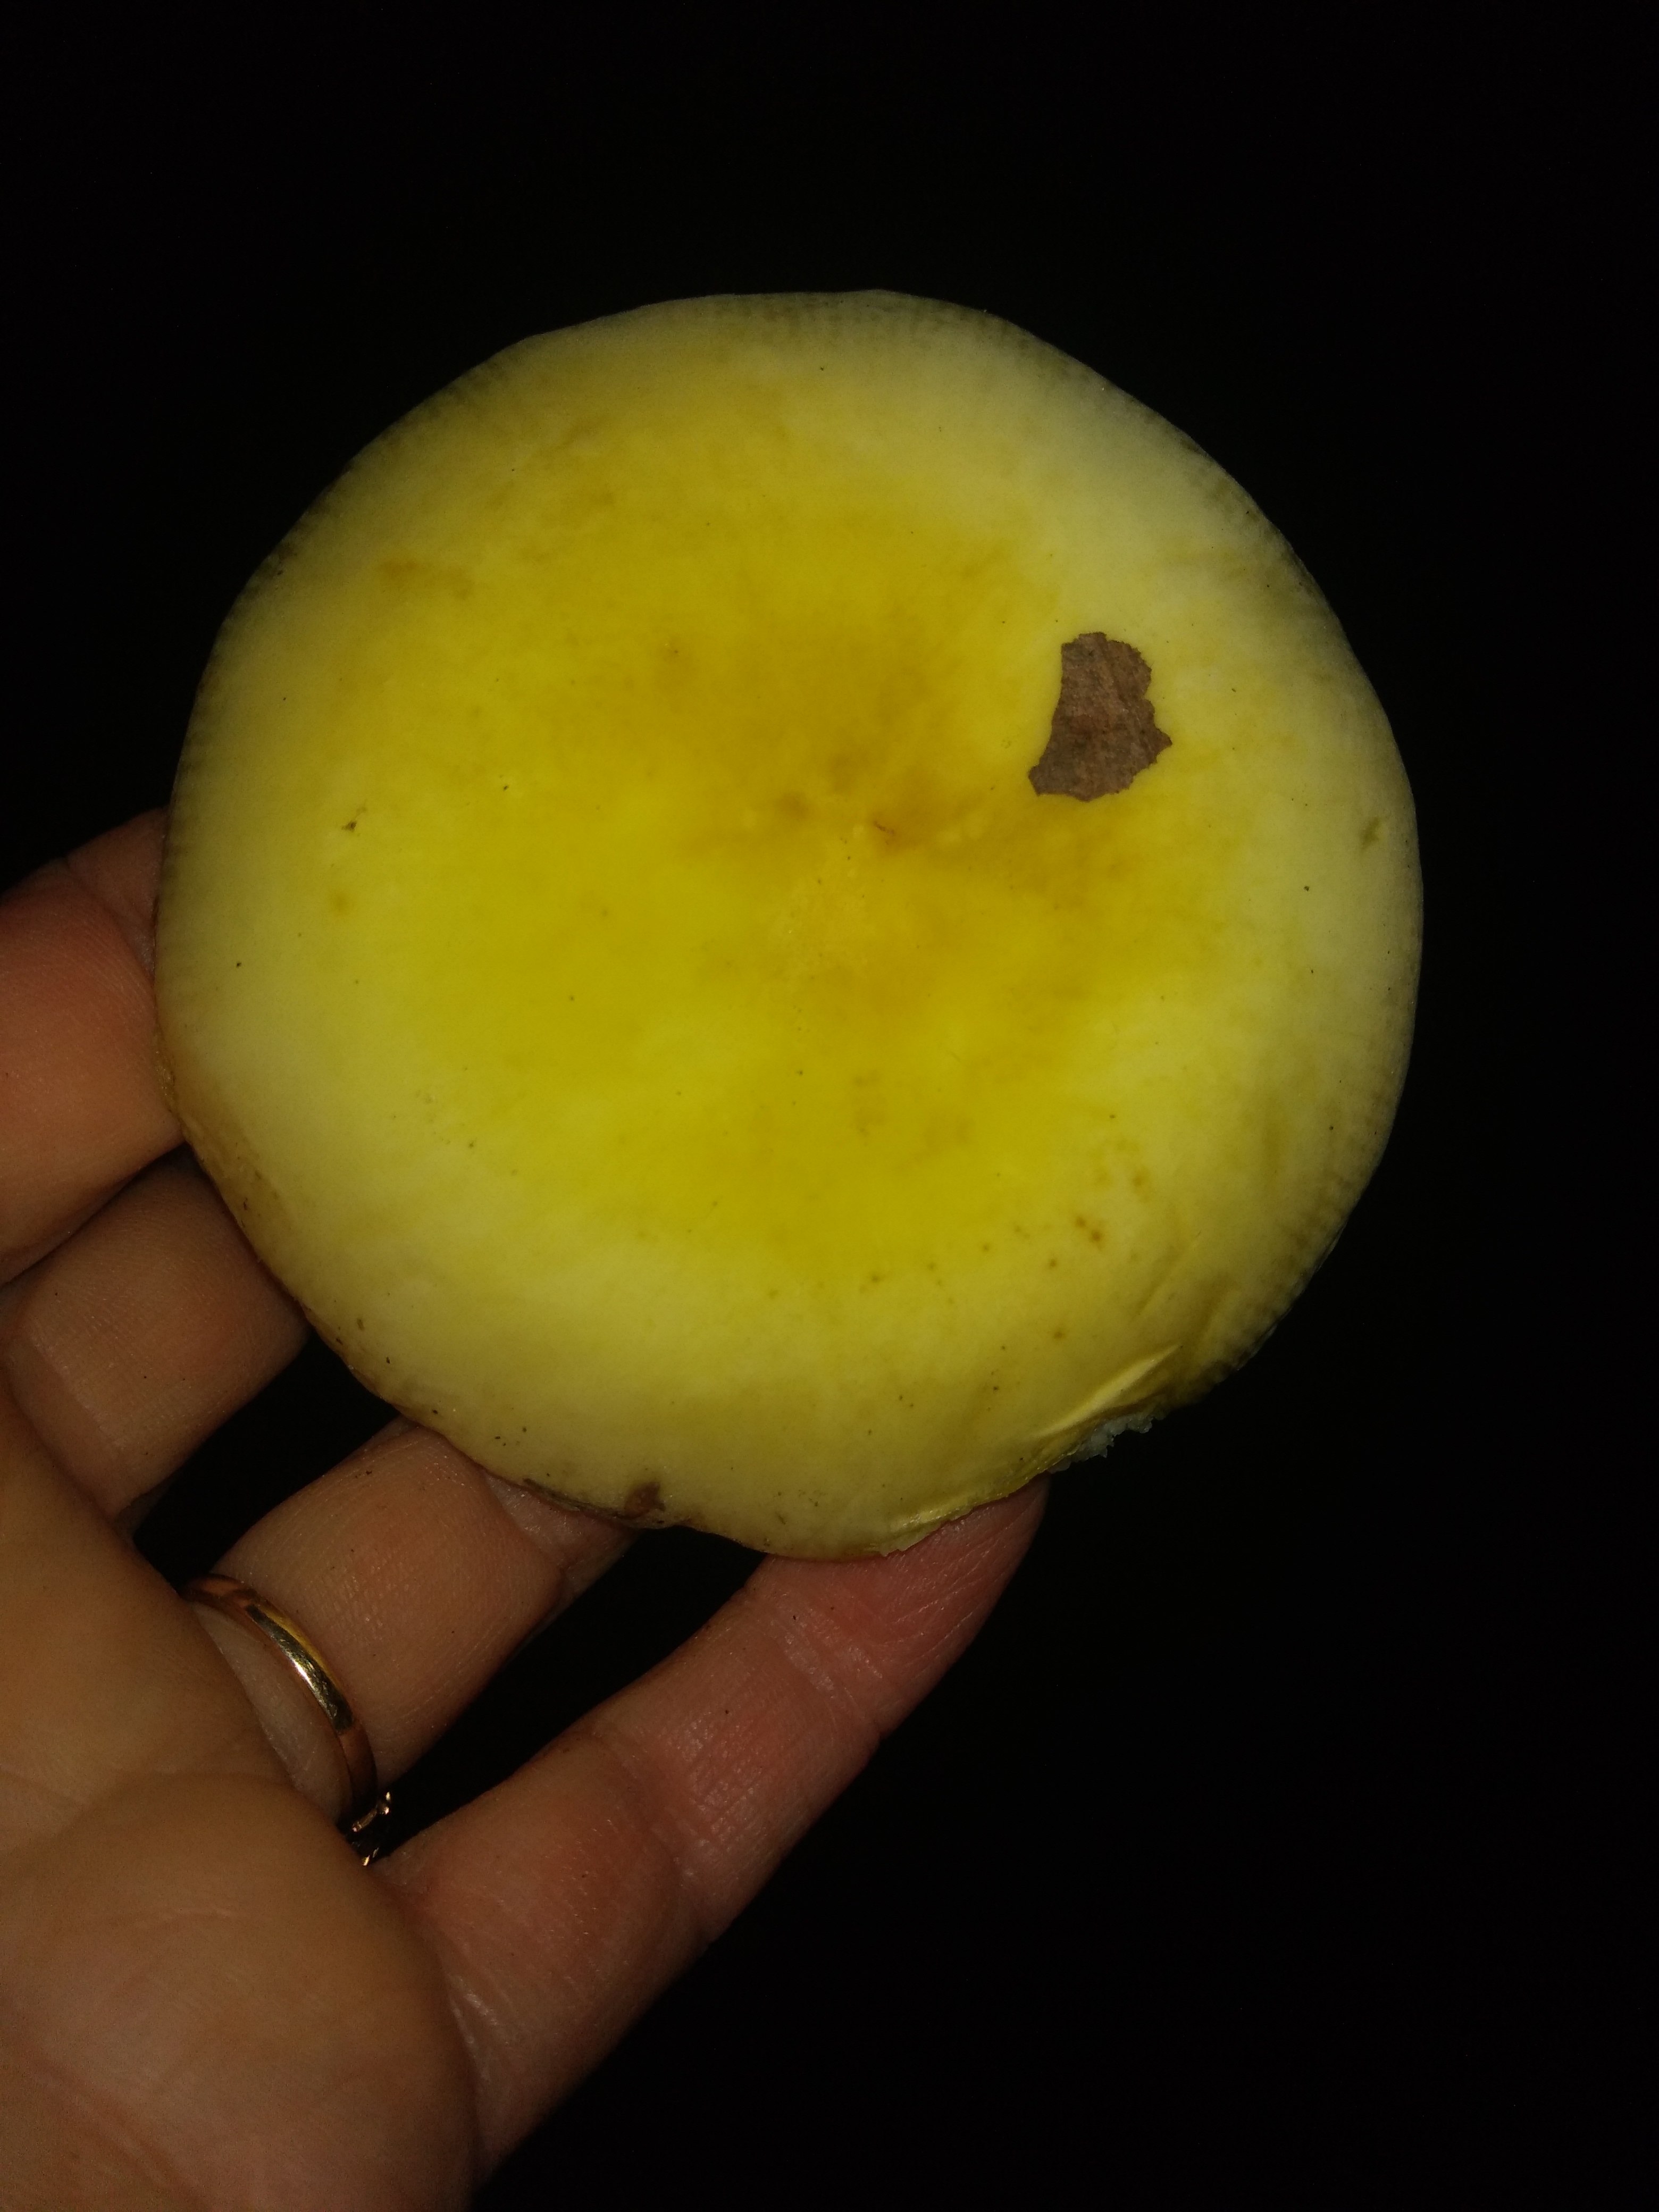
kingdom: Fungi
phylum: Basidiomycota
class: Agaricomycetes
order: Russulales
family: Russulaceae
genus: Russula
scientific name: Russula violeipes
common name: ferskengul skørhat
